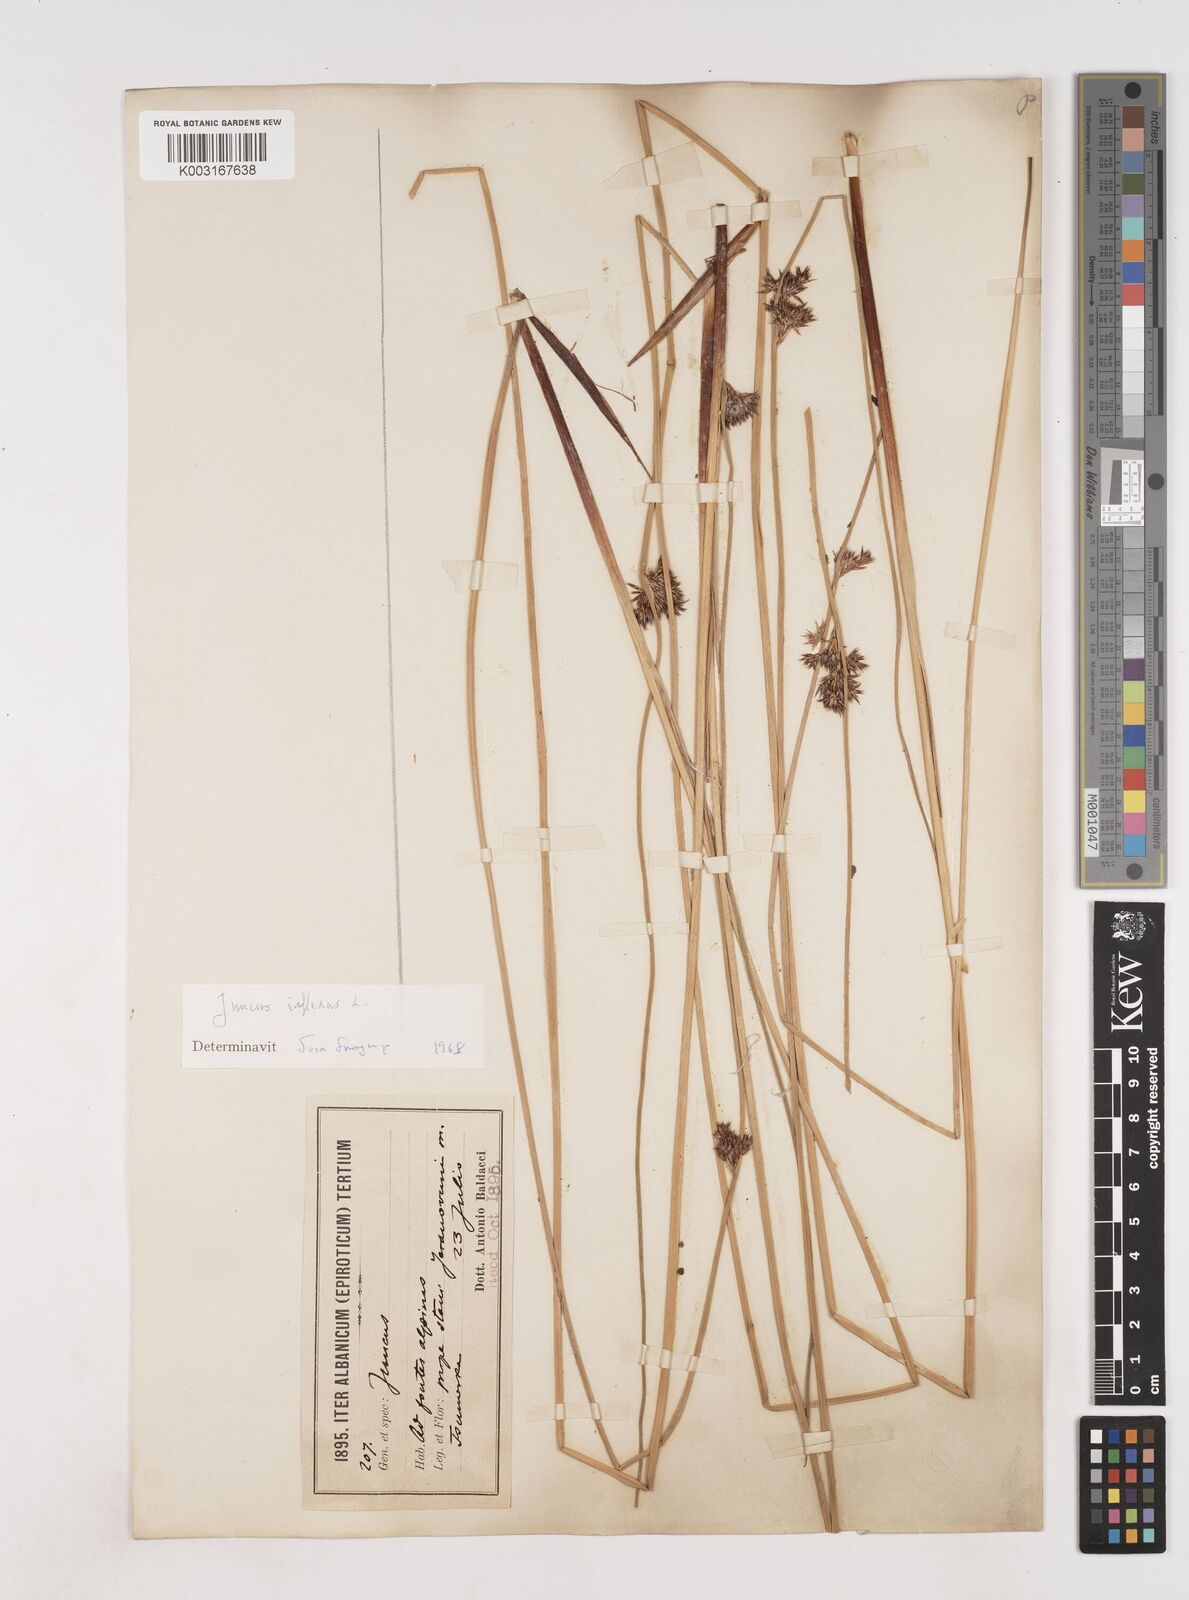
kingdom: Plantae
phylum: Tracheophyta
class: Liliopsida
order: Poales
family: Juncaceae
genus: Juncus
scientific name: Juncus inflexus
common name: Hard rush
